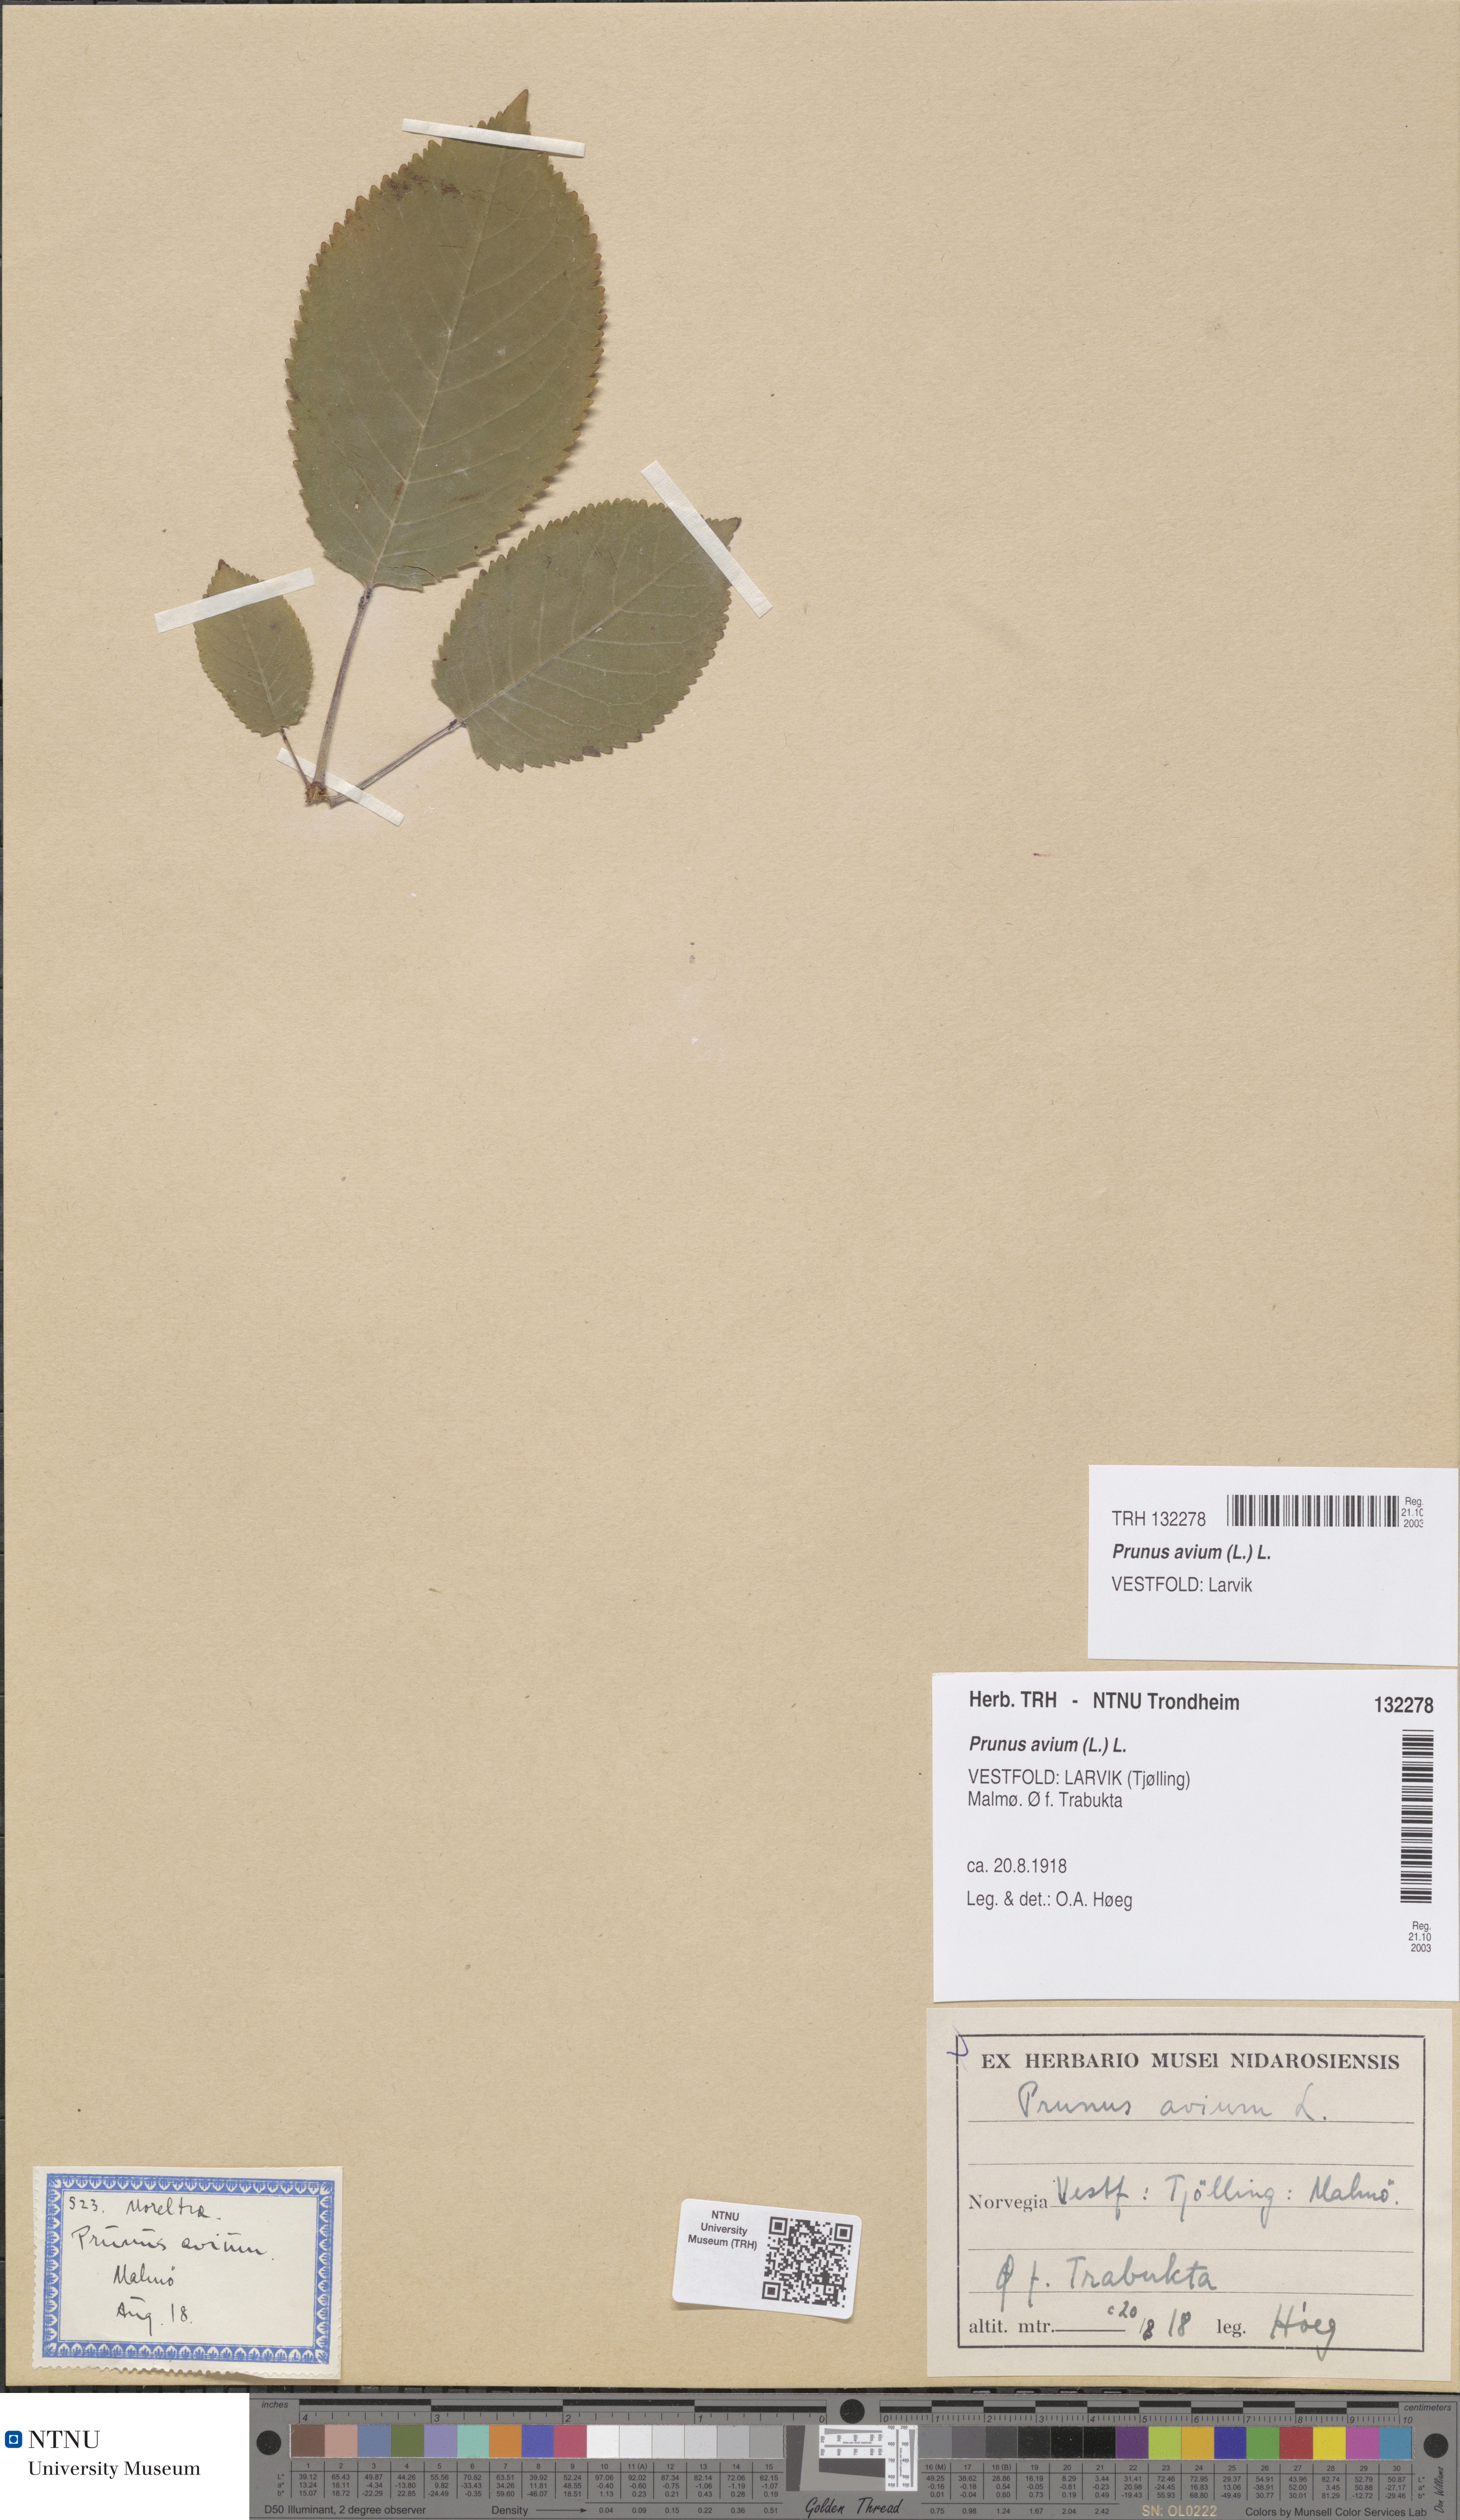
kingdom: Plantae
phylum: Tracheophyta
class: Magnoliopsida
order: Rosales
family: Rosaceae
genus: Prunus
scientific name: Prunus avium
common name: Sweet cherry
